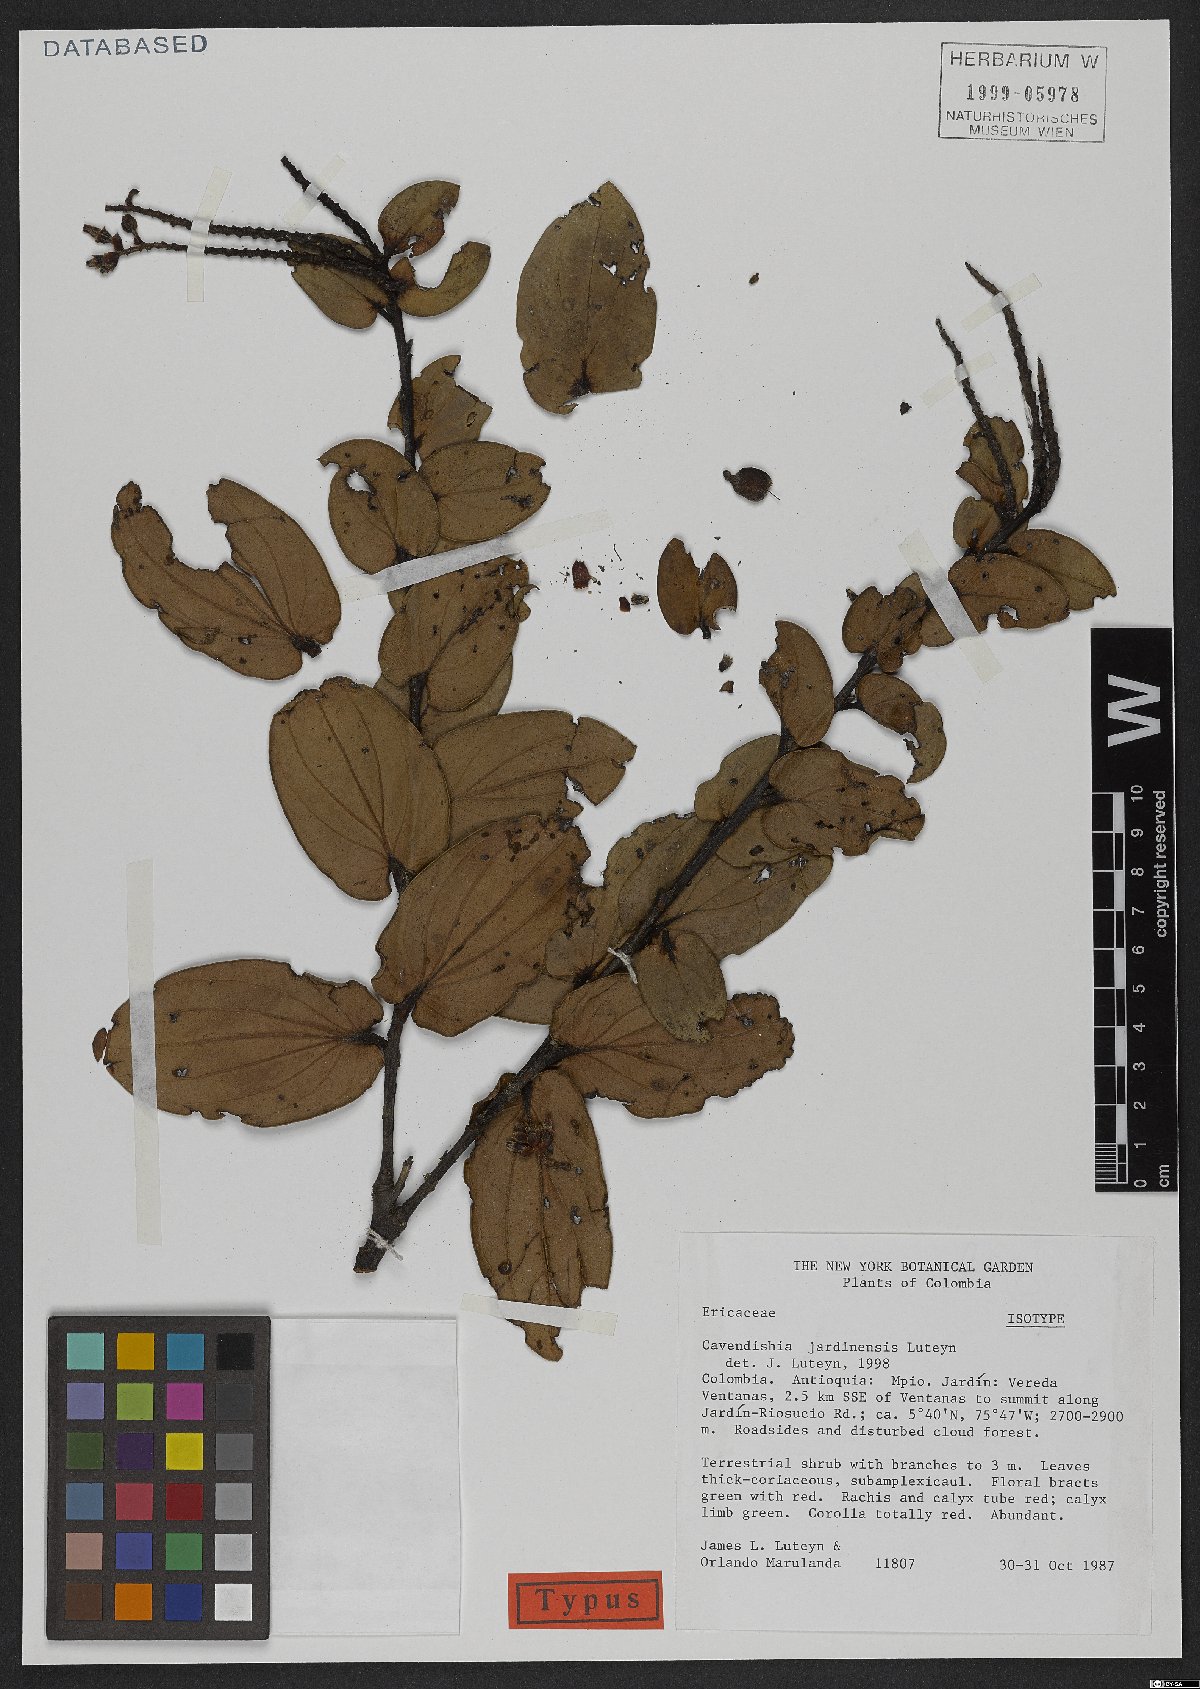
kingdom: Plantae
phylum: Tracheophyta
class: Magnoliopsida
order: Ericales
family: Ericaceae
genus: Cavendishia
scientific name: Cavendishia jardinensis
